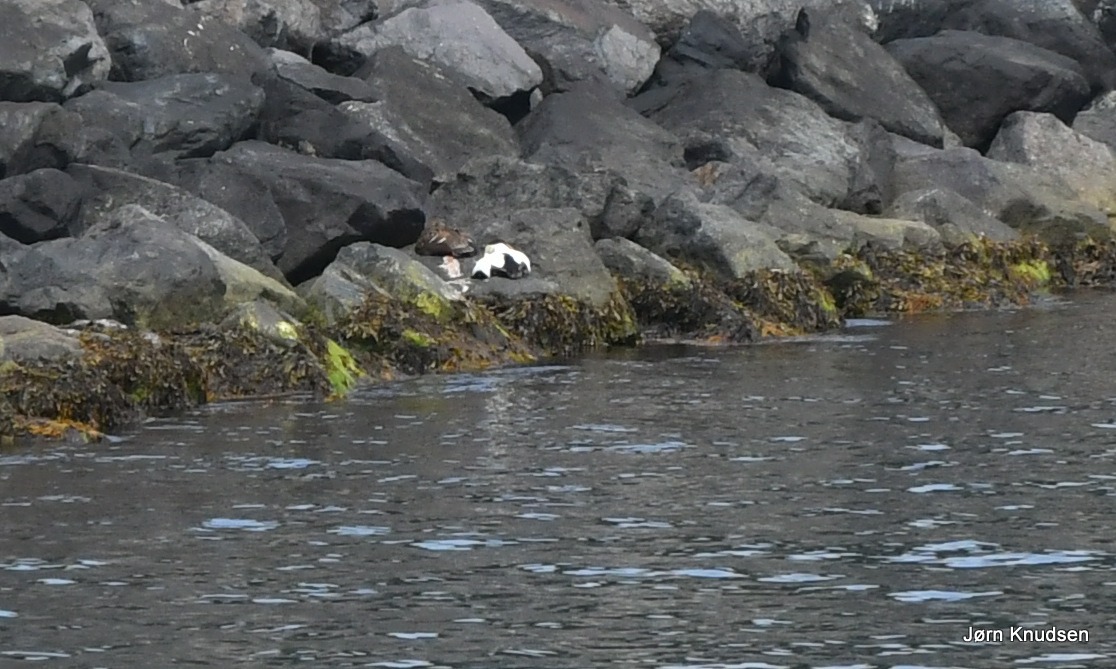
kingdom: Animalia
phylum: Chordata
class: Aves
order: Anseriformes
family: Anatidae
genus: Somateria
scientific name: Somateria mollissima
